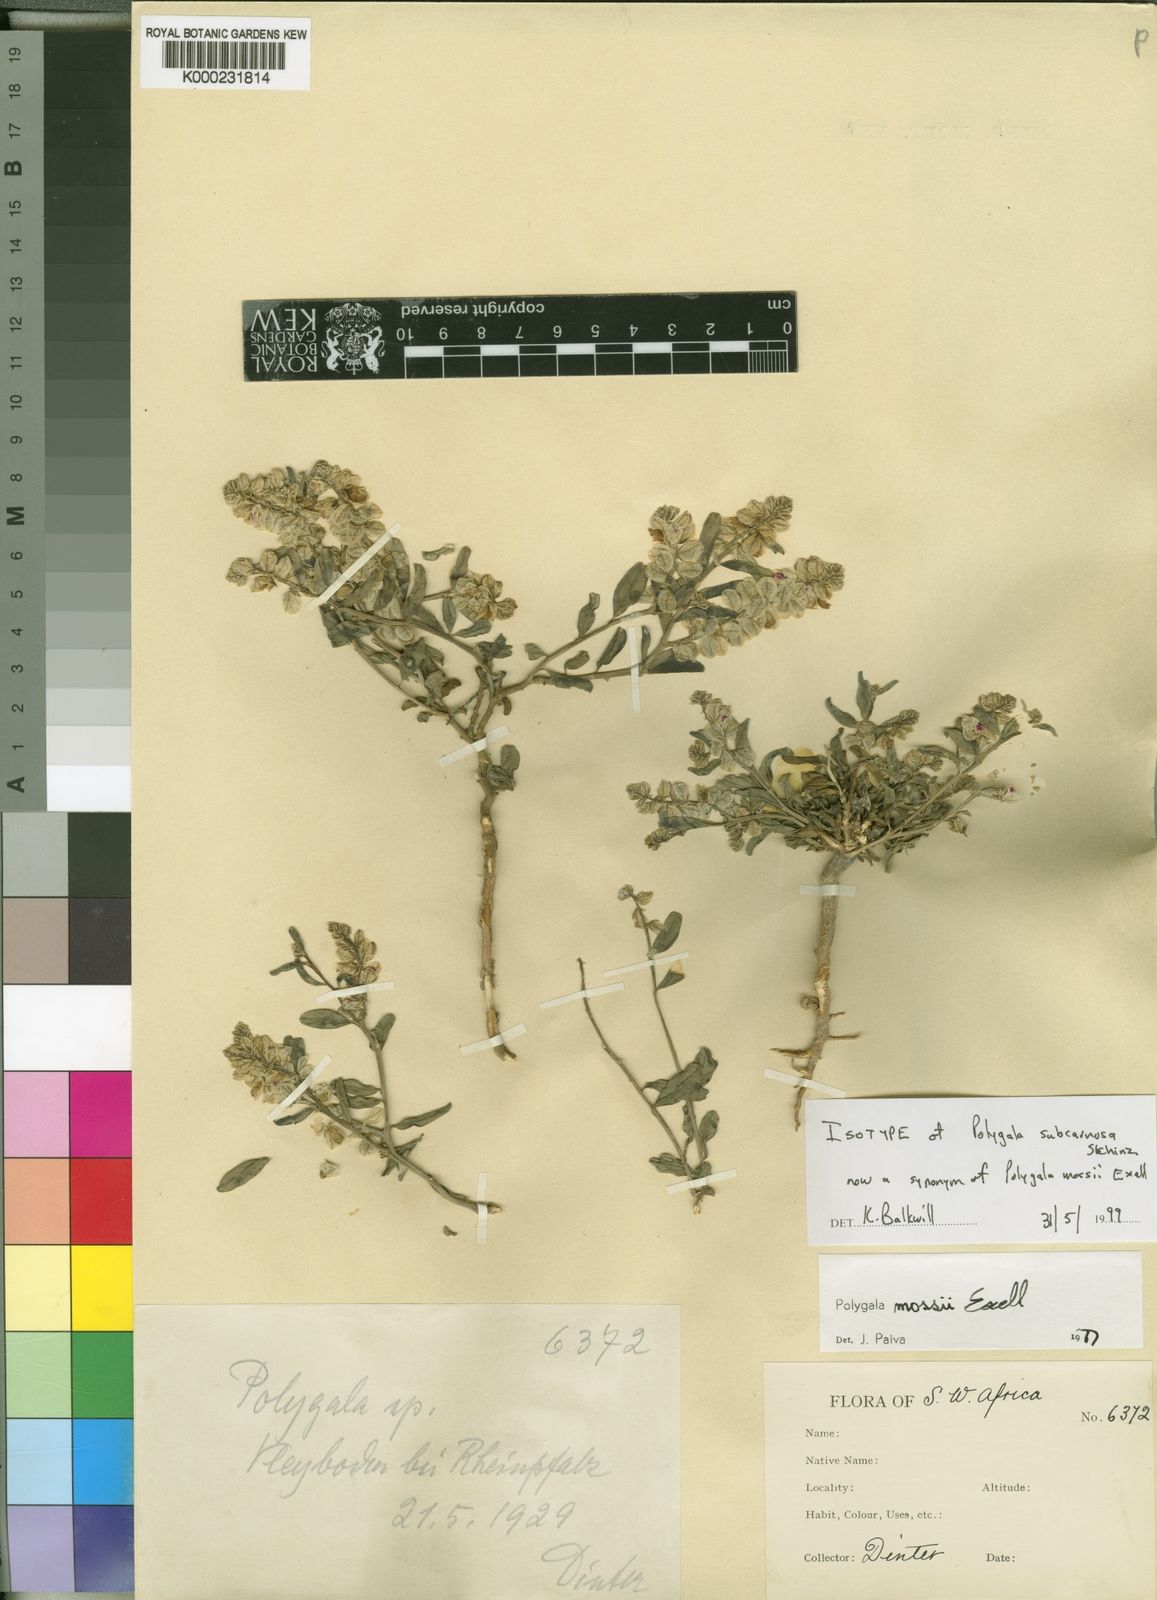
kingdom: Plantae
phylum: Tracheophyta
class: Magnoliopsida
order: Fabales
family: Polygalaceae
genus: Polygala
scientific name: Polygala mossii
